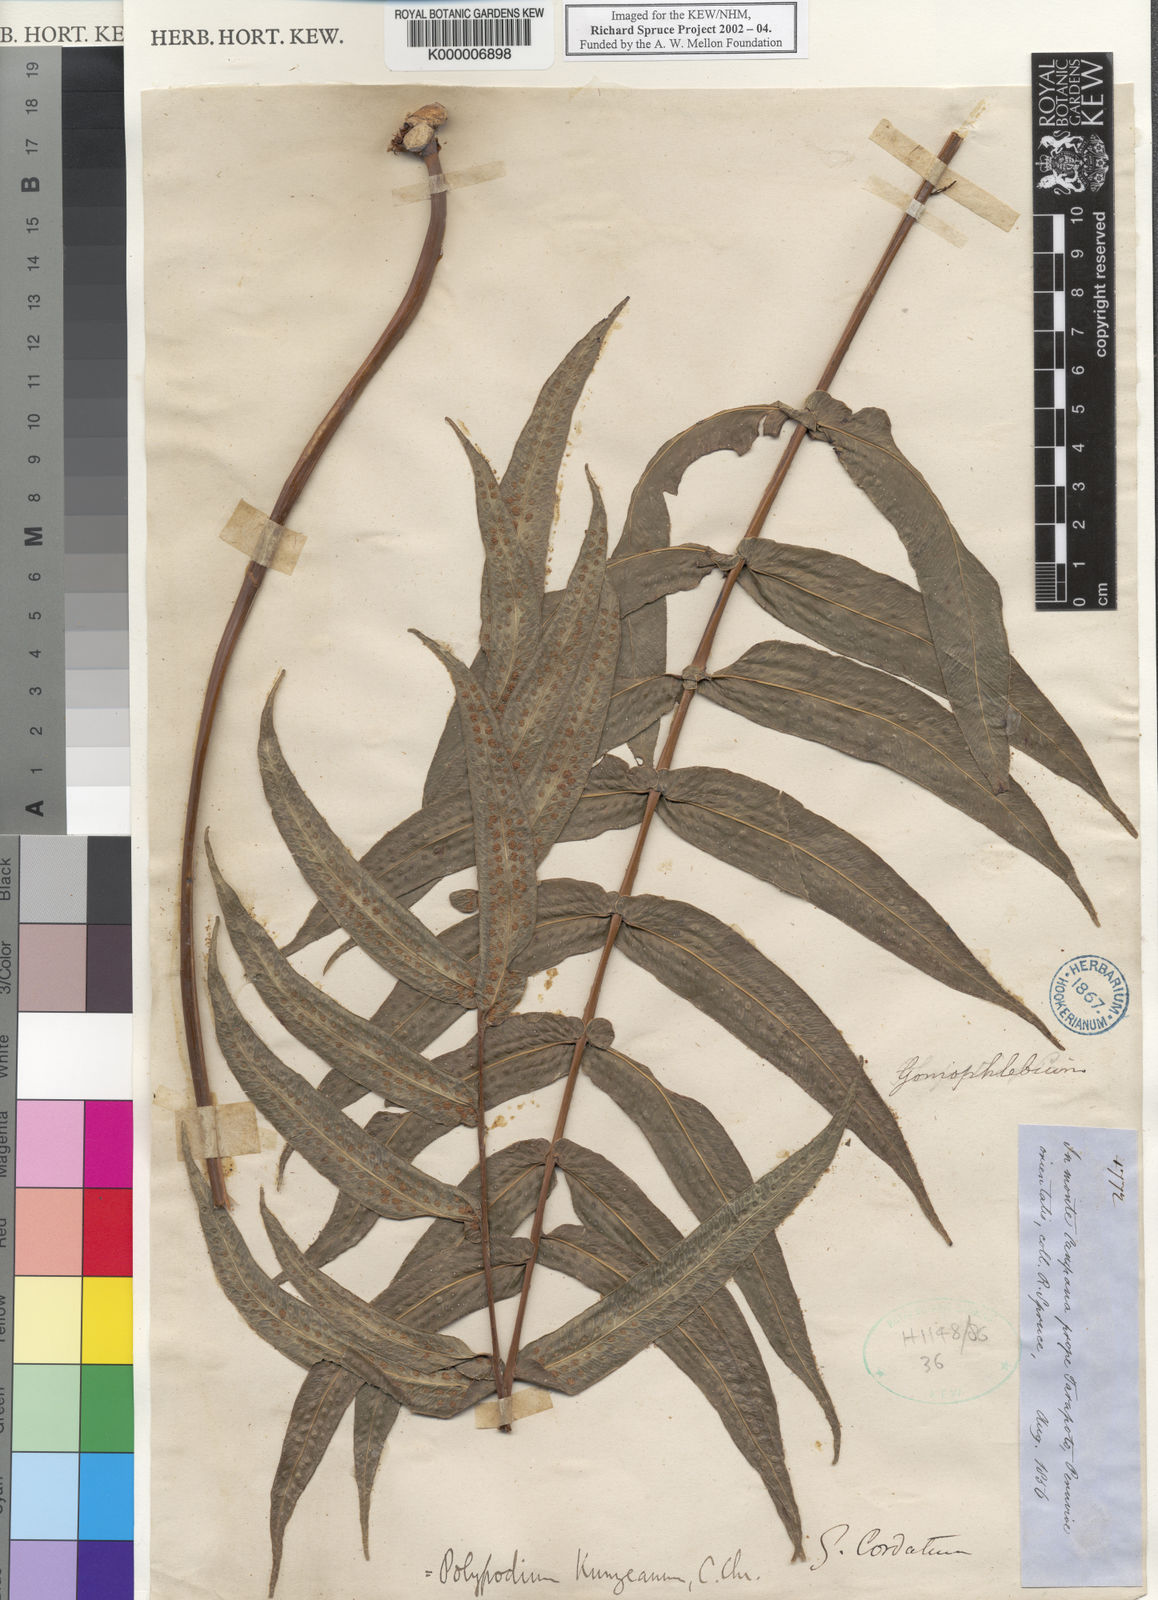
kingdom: Plantae
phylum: Tracheophyta
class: Polypodiopsida
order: Polypodiales
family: Polypodiaceae
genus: Serpocaulon
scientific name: Serpocaulon sessilifolium
